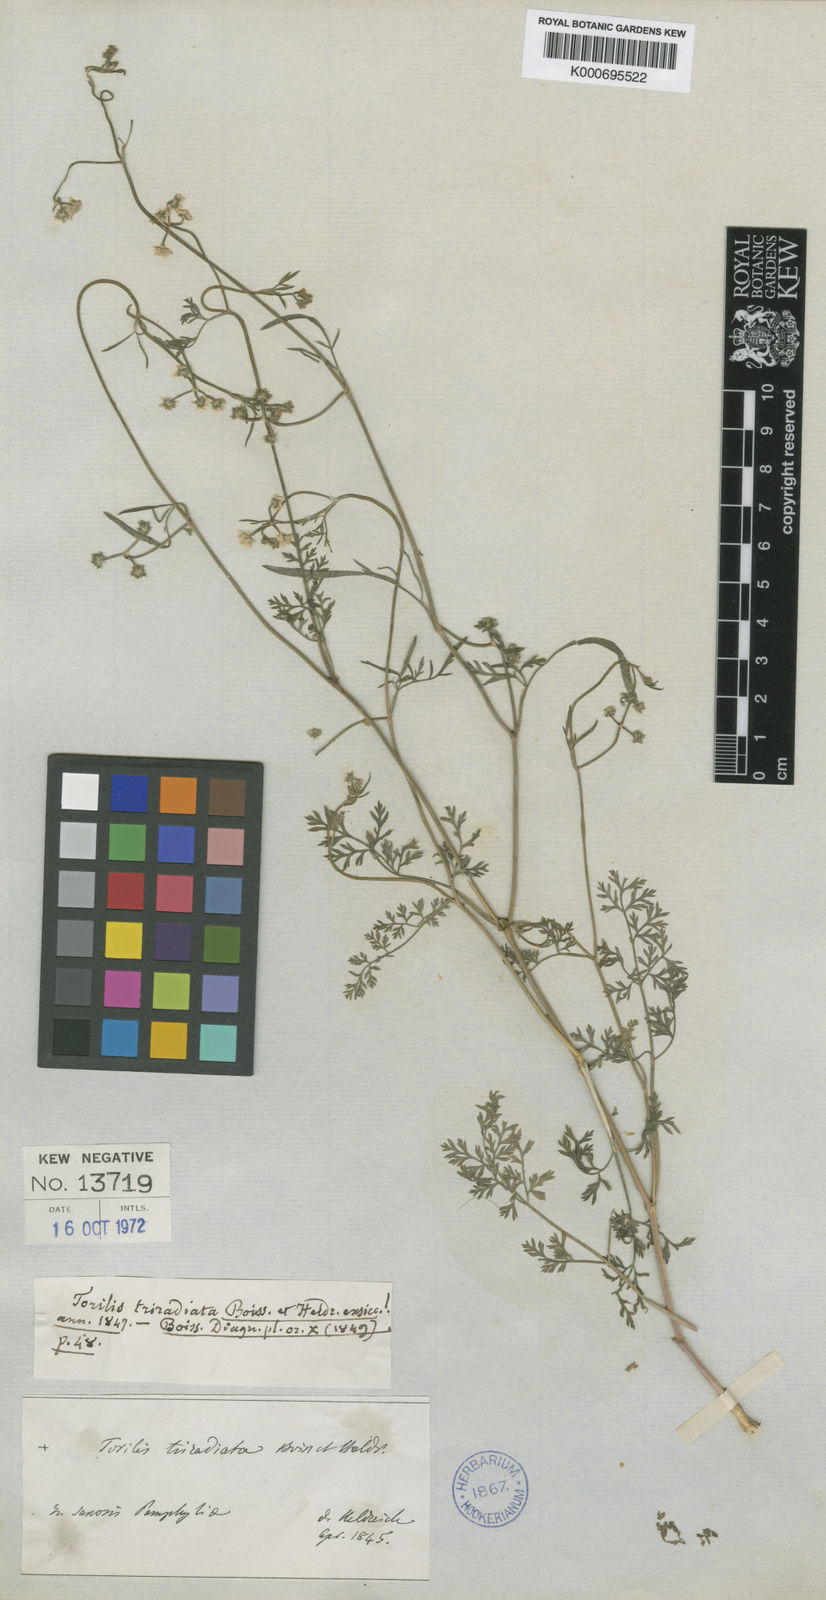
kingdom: Plantae
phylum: Tracheophyta
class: Magnoliopsida
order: Apiales
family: Apiaceae
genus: Torilis
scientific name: Torilis triradiata
